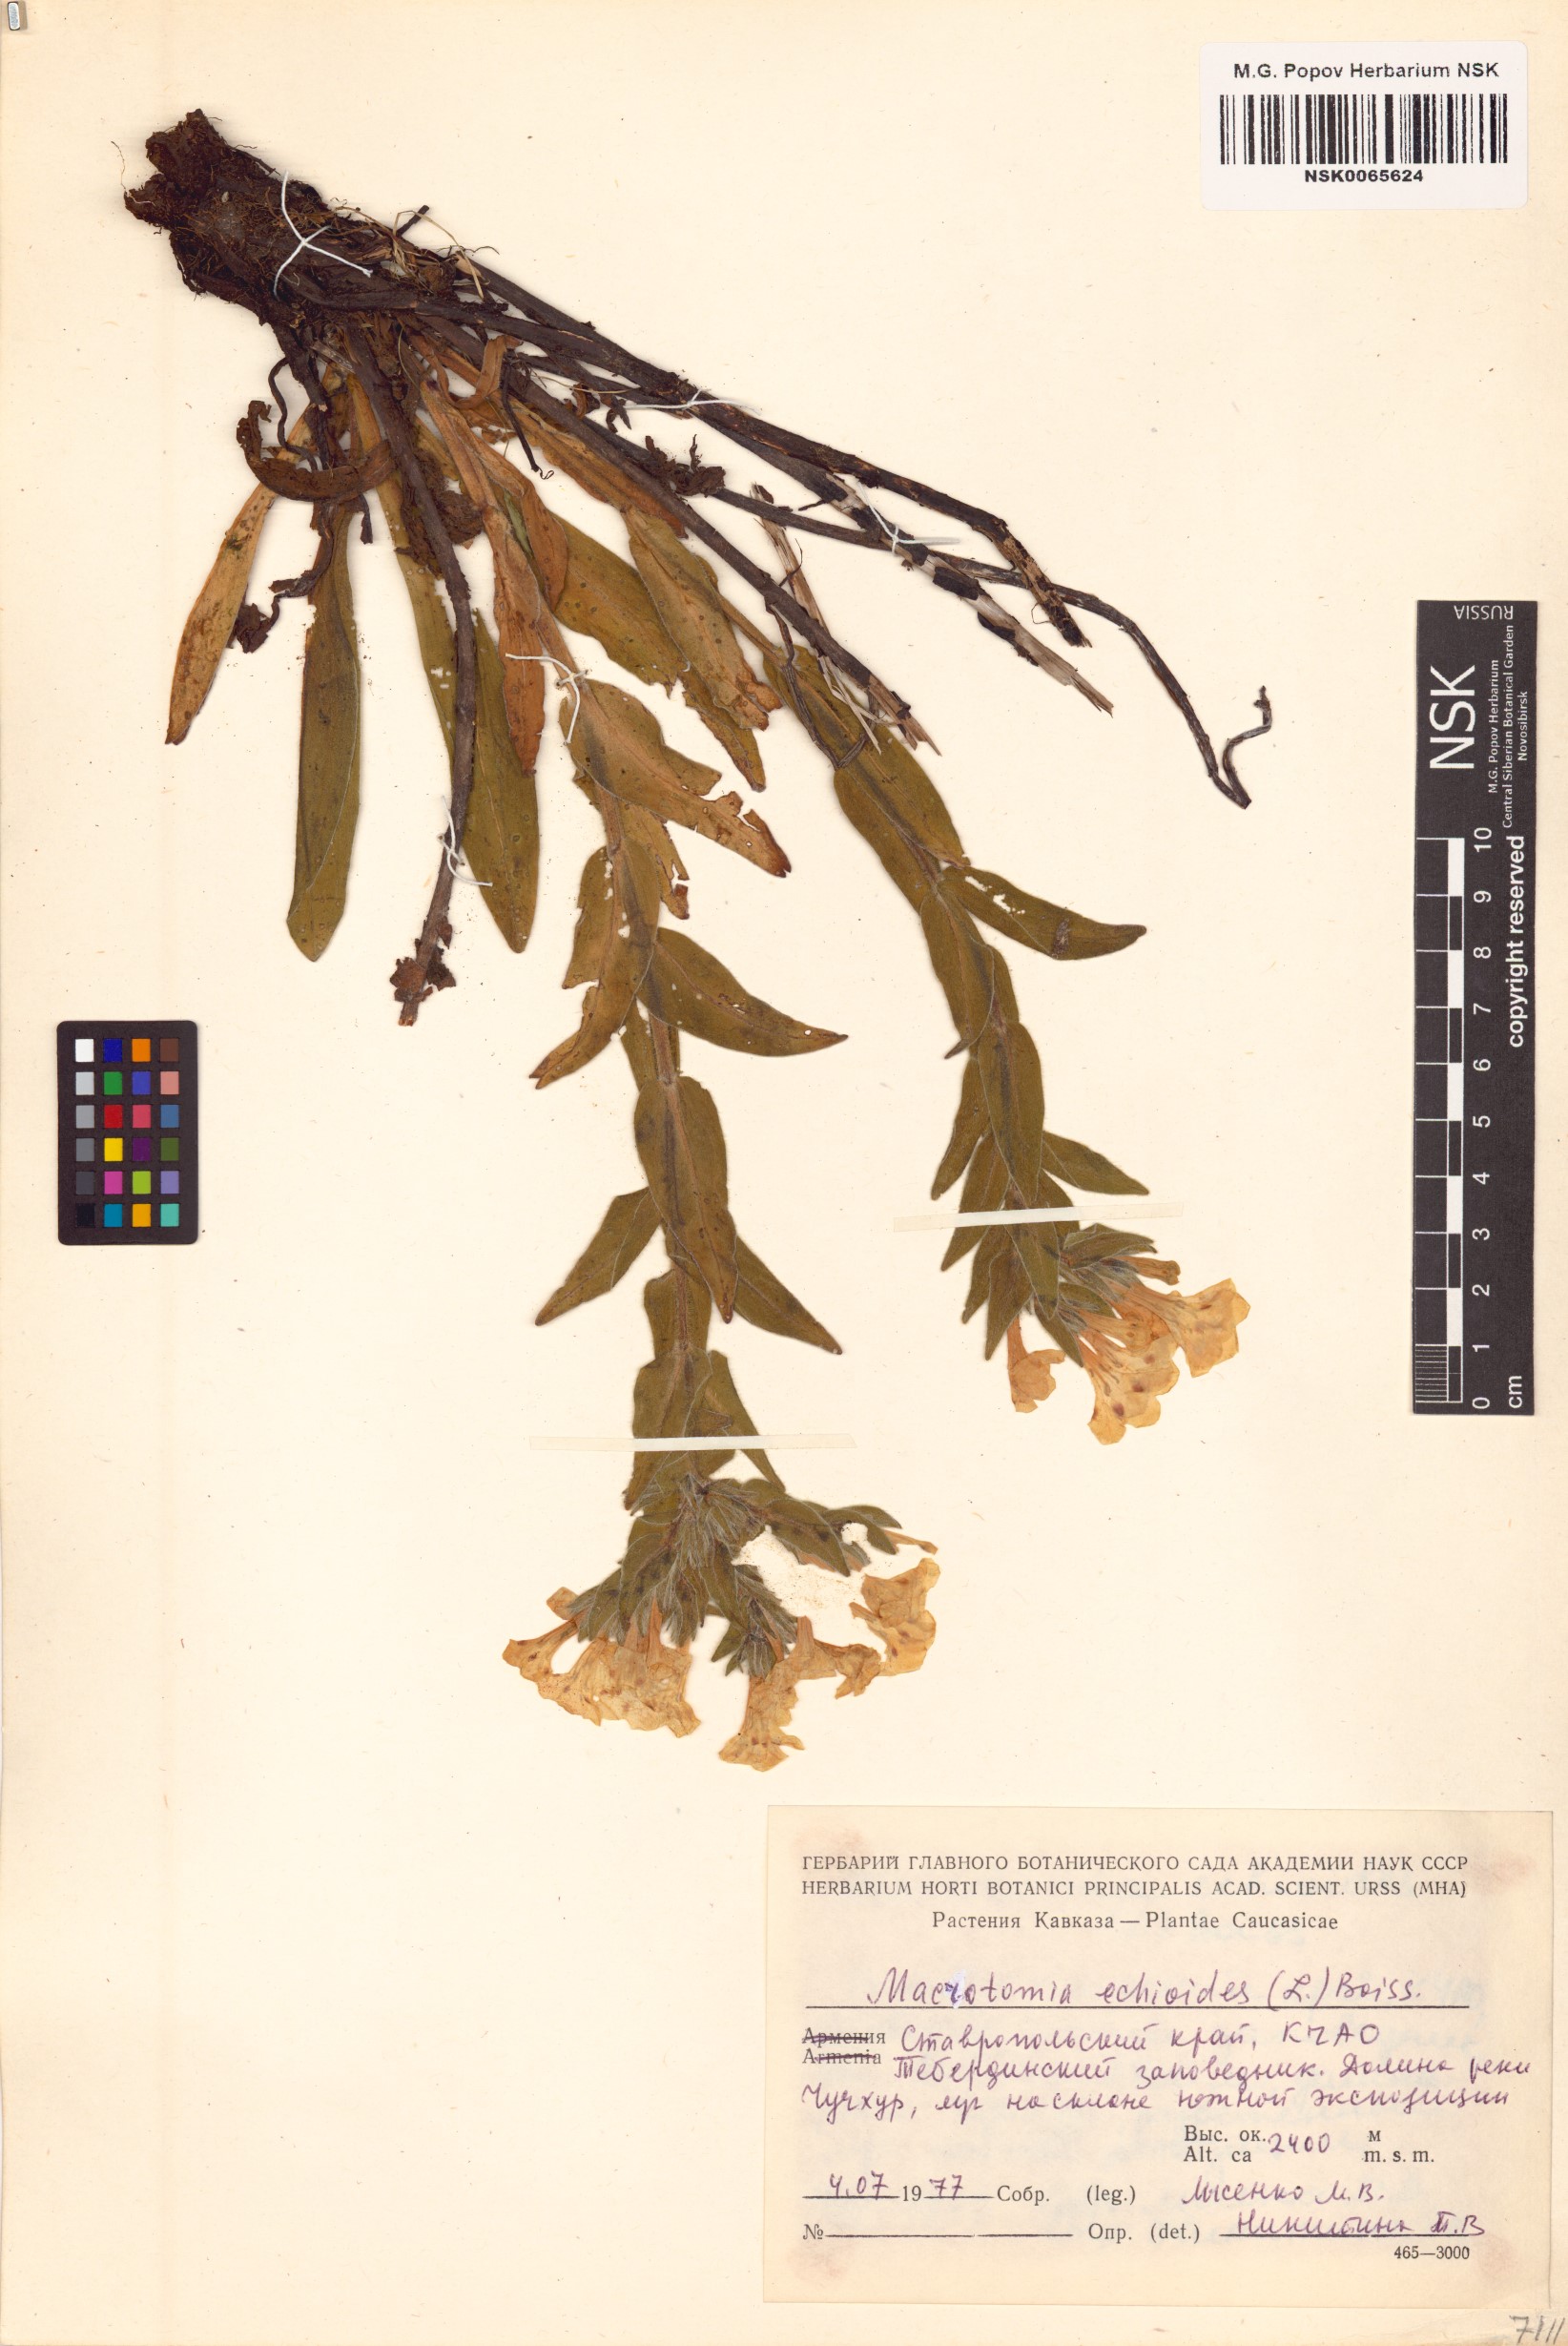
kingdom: Plantae
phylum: Tracheophyta
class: Magnoliopsida
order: Boraginales
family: Boraginaceae
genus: Nonea
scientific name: Nonea echioides
